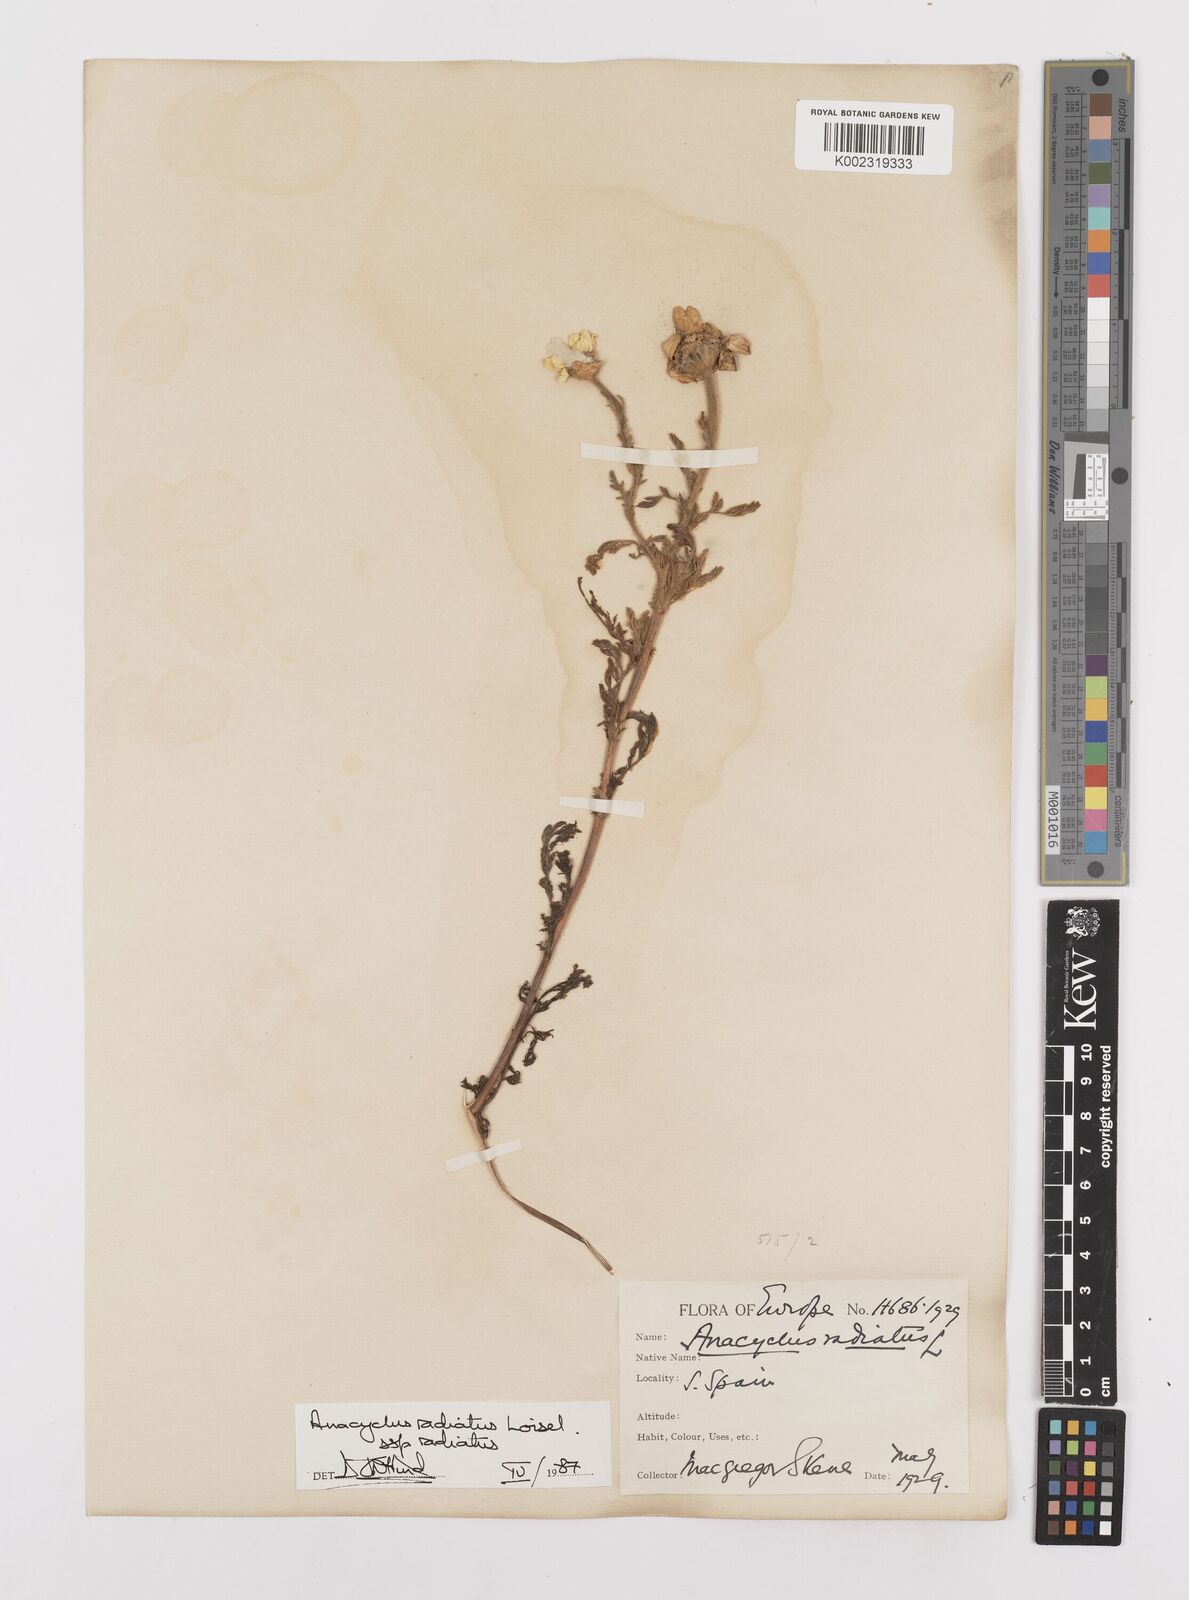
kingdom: Plantae
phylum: Tracheophyta
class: Magnoliopsida
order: Asterales
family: Asteraceae
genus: Anacyclus
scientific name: Anacyclus radiatus
